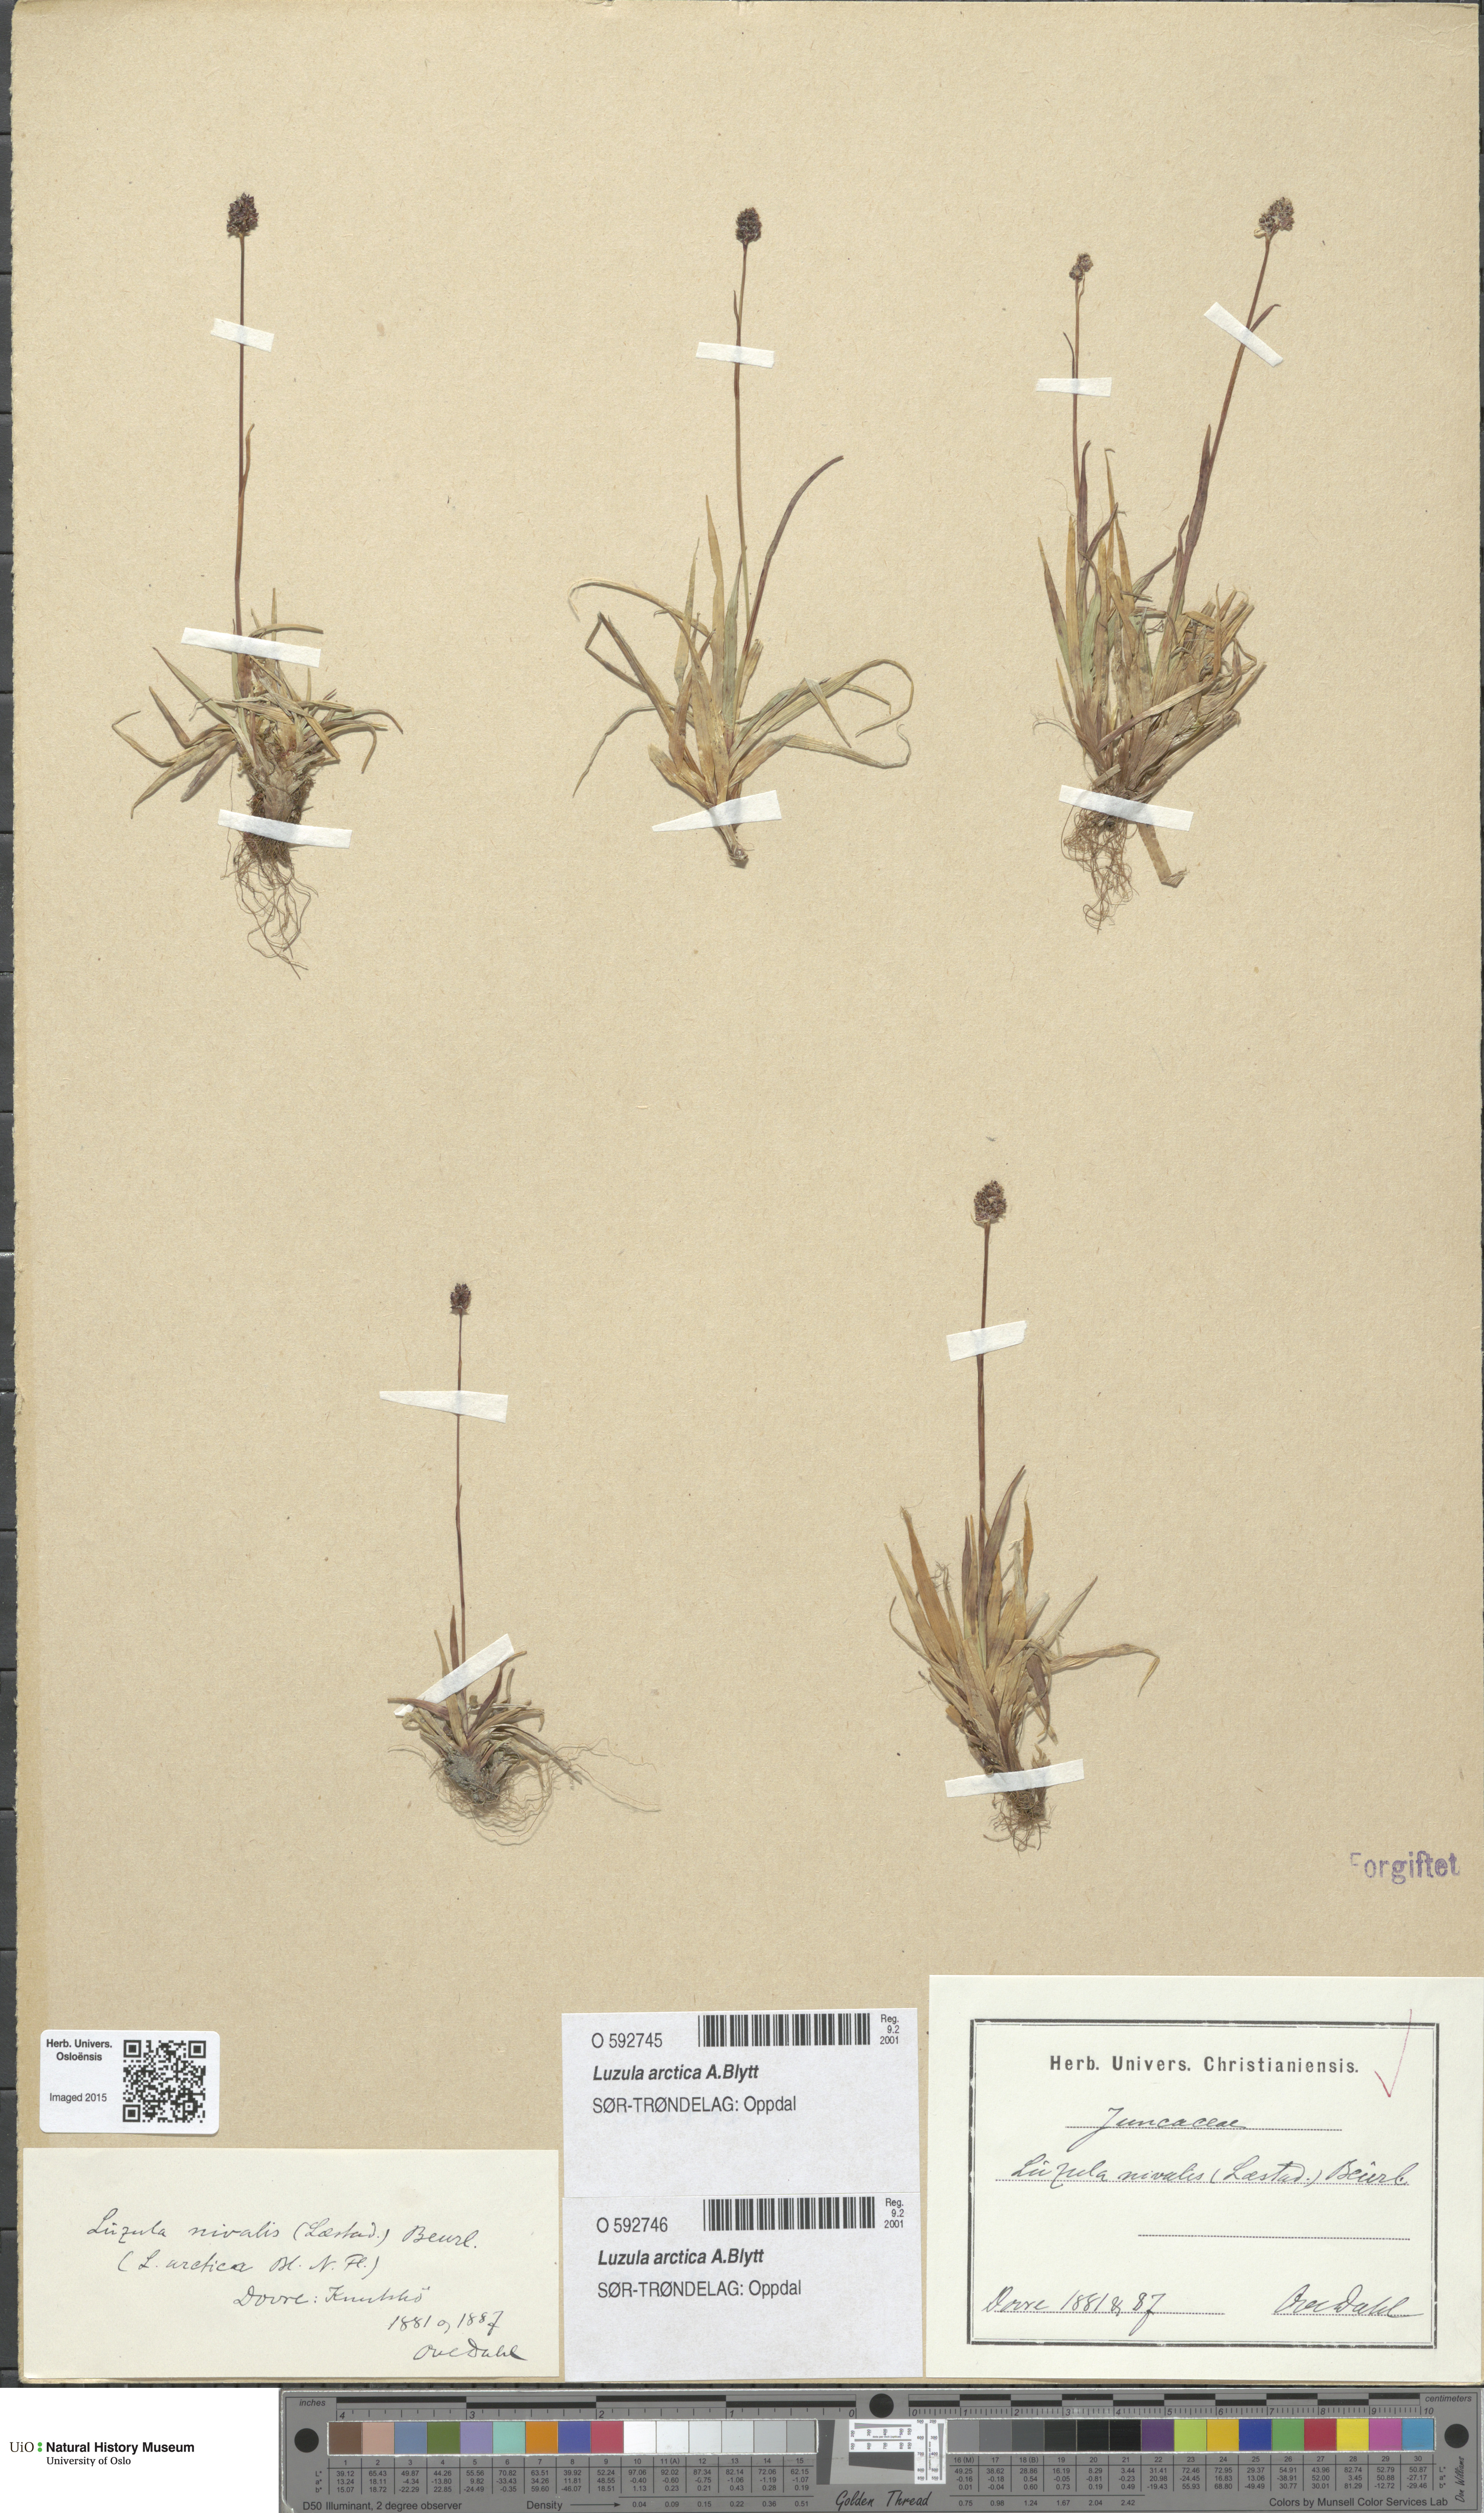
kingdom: Plantae
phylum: Tracheophyta
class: Liliopsida
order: Poales
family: Juncaceae
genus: Luzula
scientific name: Luzula nivalis
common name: Arctic woodrush
